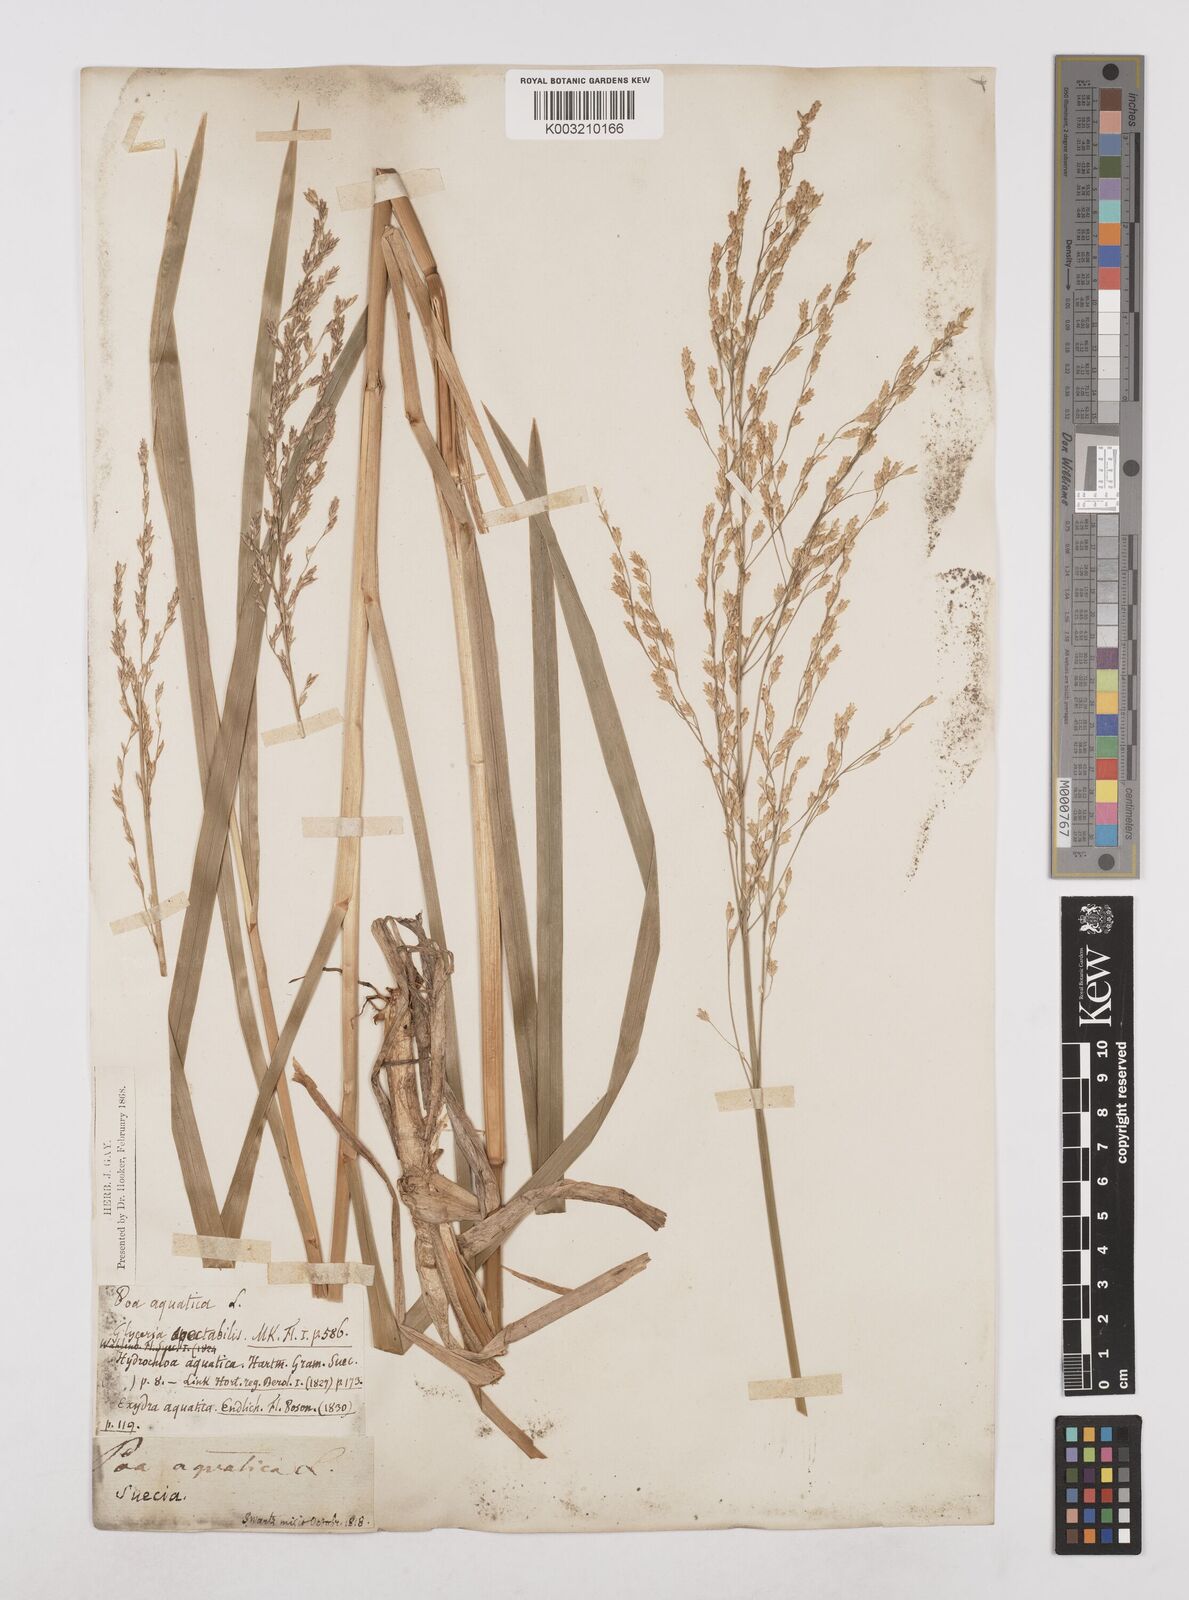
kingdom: Plantae
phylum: Tracheophyta
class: Liliopsida
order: Poales
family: Poaceae
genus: Glyceria
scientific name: Glyceria maxima
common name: Reed mannagrass
